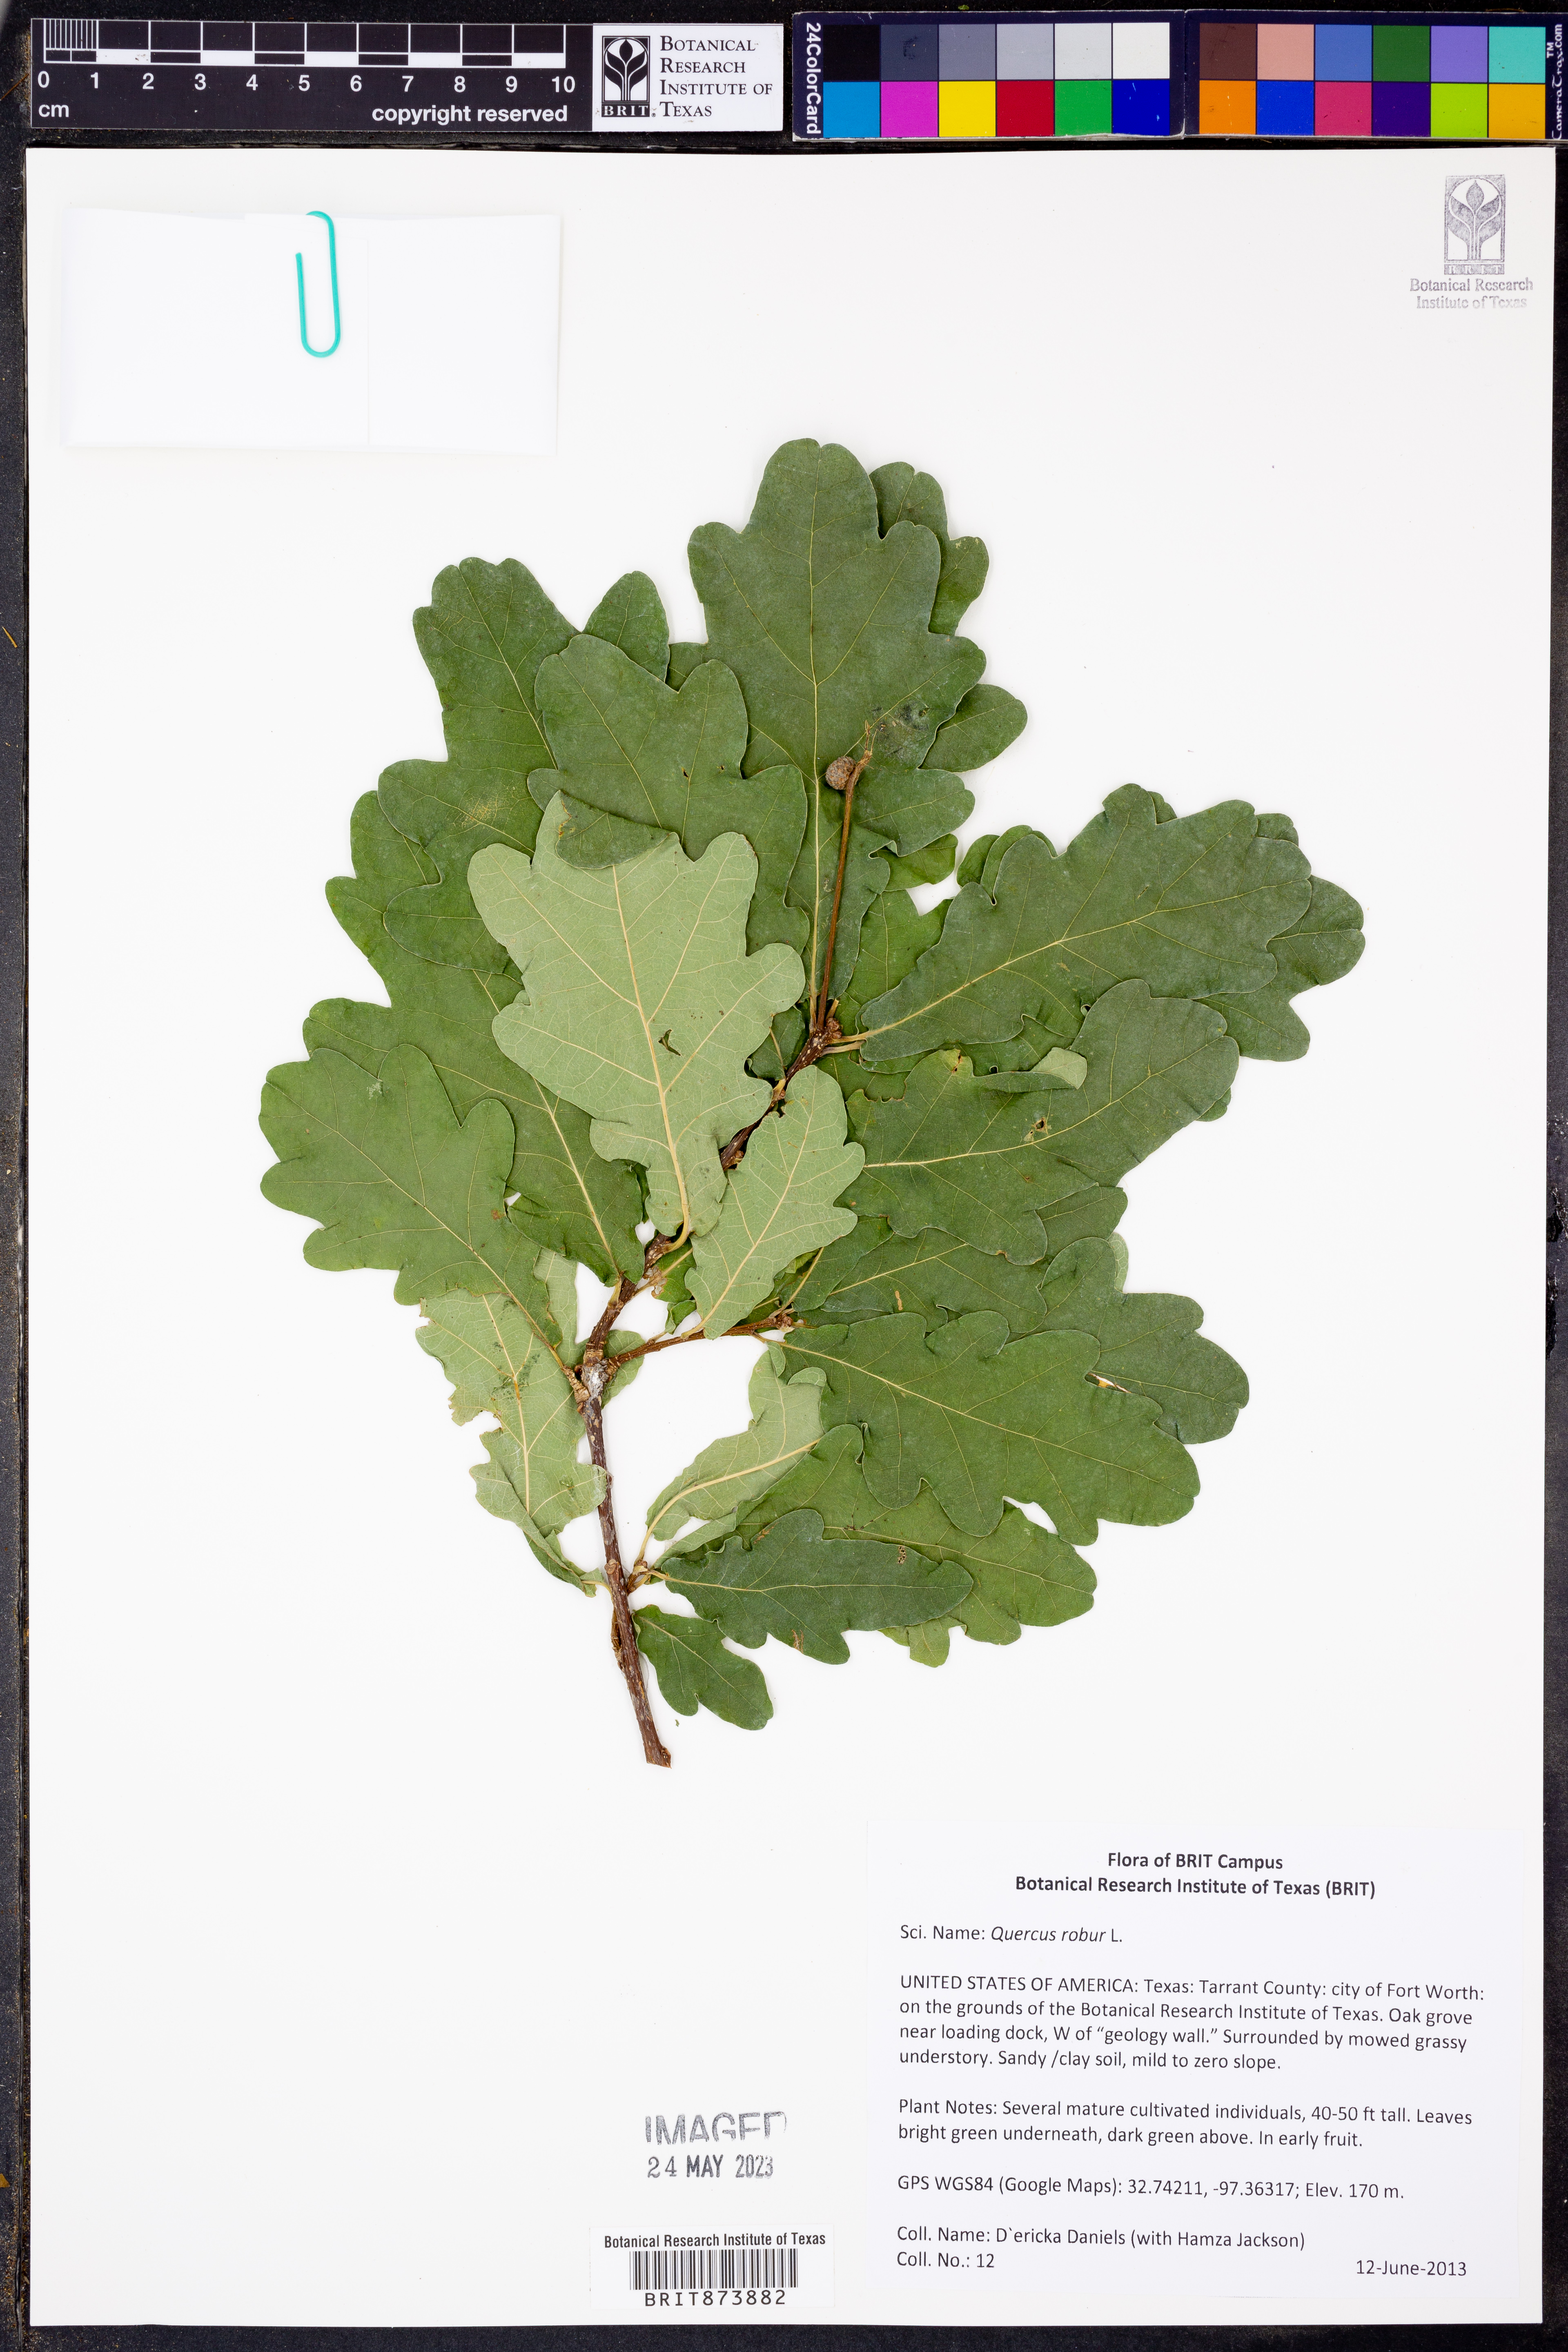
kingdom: Plantae
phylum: Tracheophyta
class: Magnoliopsida
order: Fagales
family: Fagaceae
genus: Quercus
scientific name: Quercus robur
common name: Pedunculate oak
